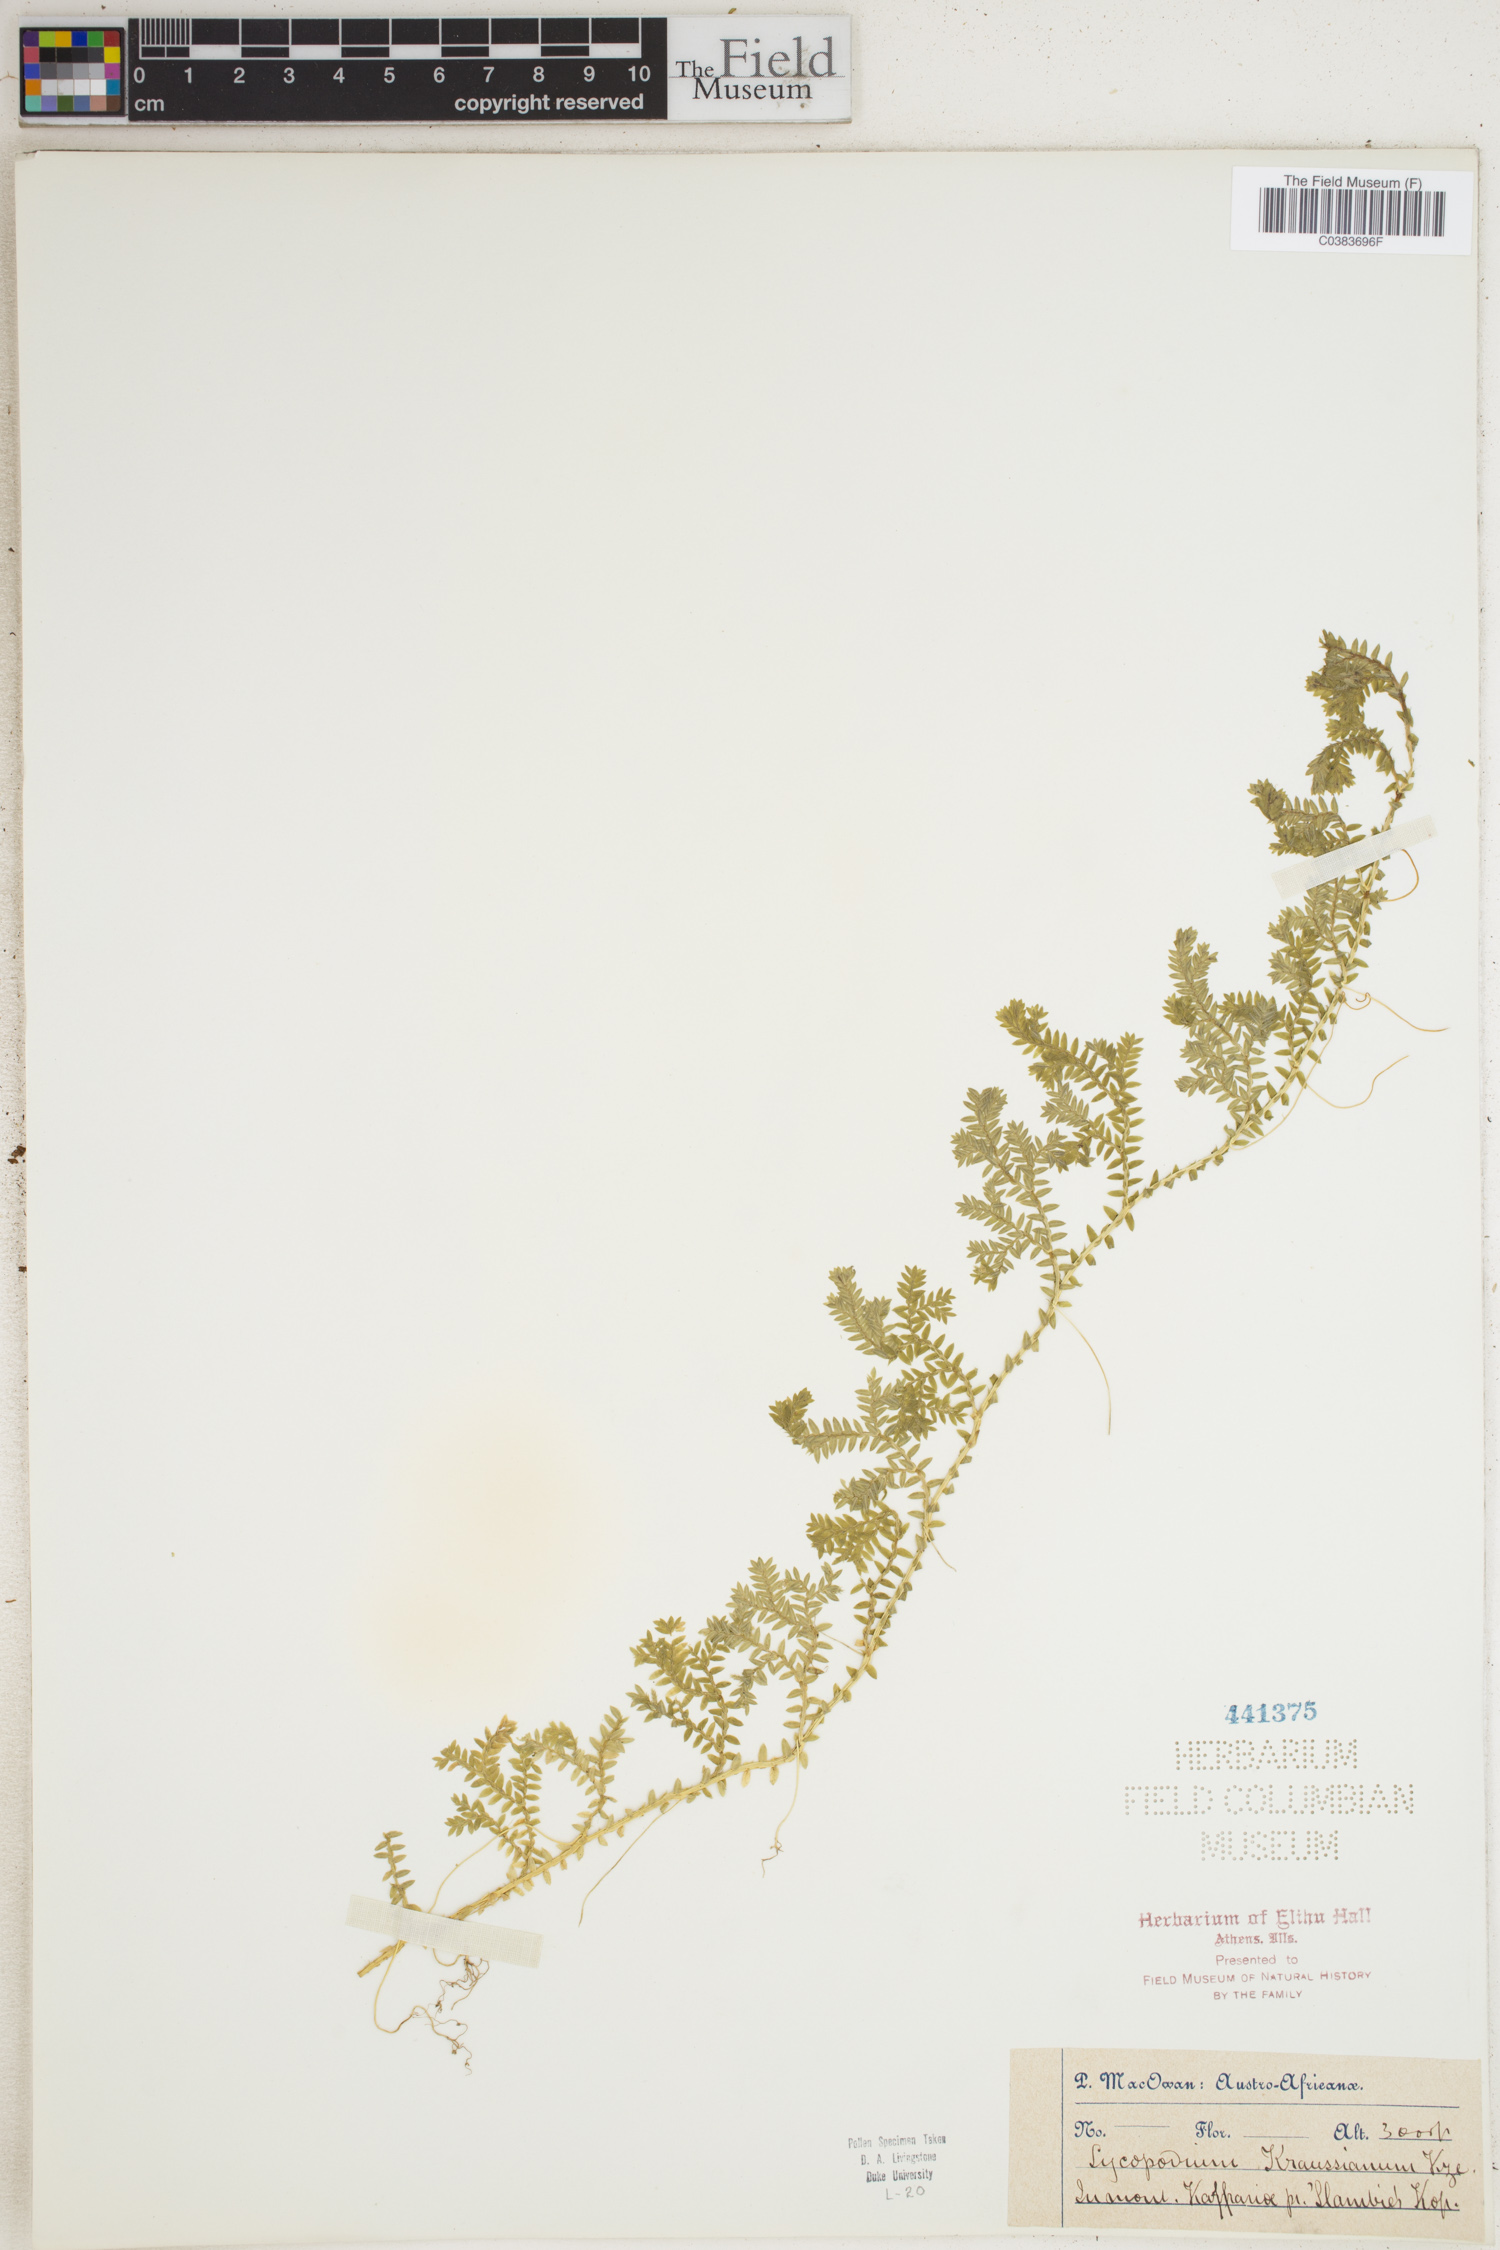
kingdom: Plantae
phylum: Tracheophyta
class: Lycopodiopsida
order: Selaginellales
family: Selaginellaceae
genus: Selaginella
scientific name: Selaginella kraussiana
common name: Krauss' spikemoss
